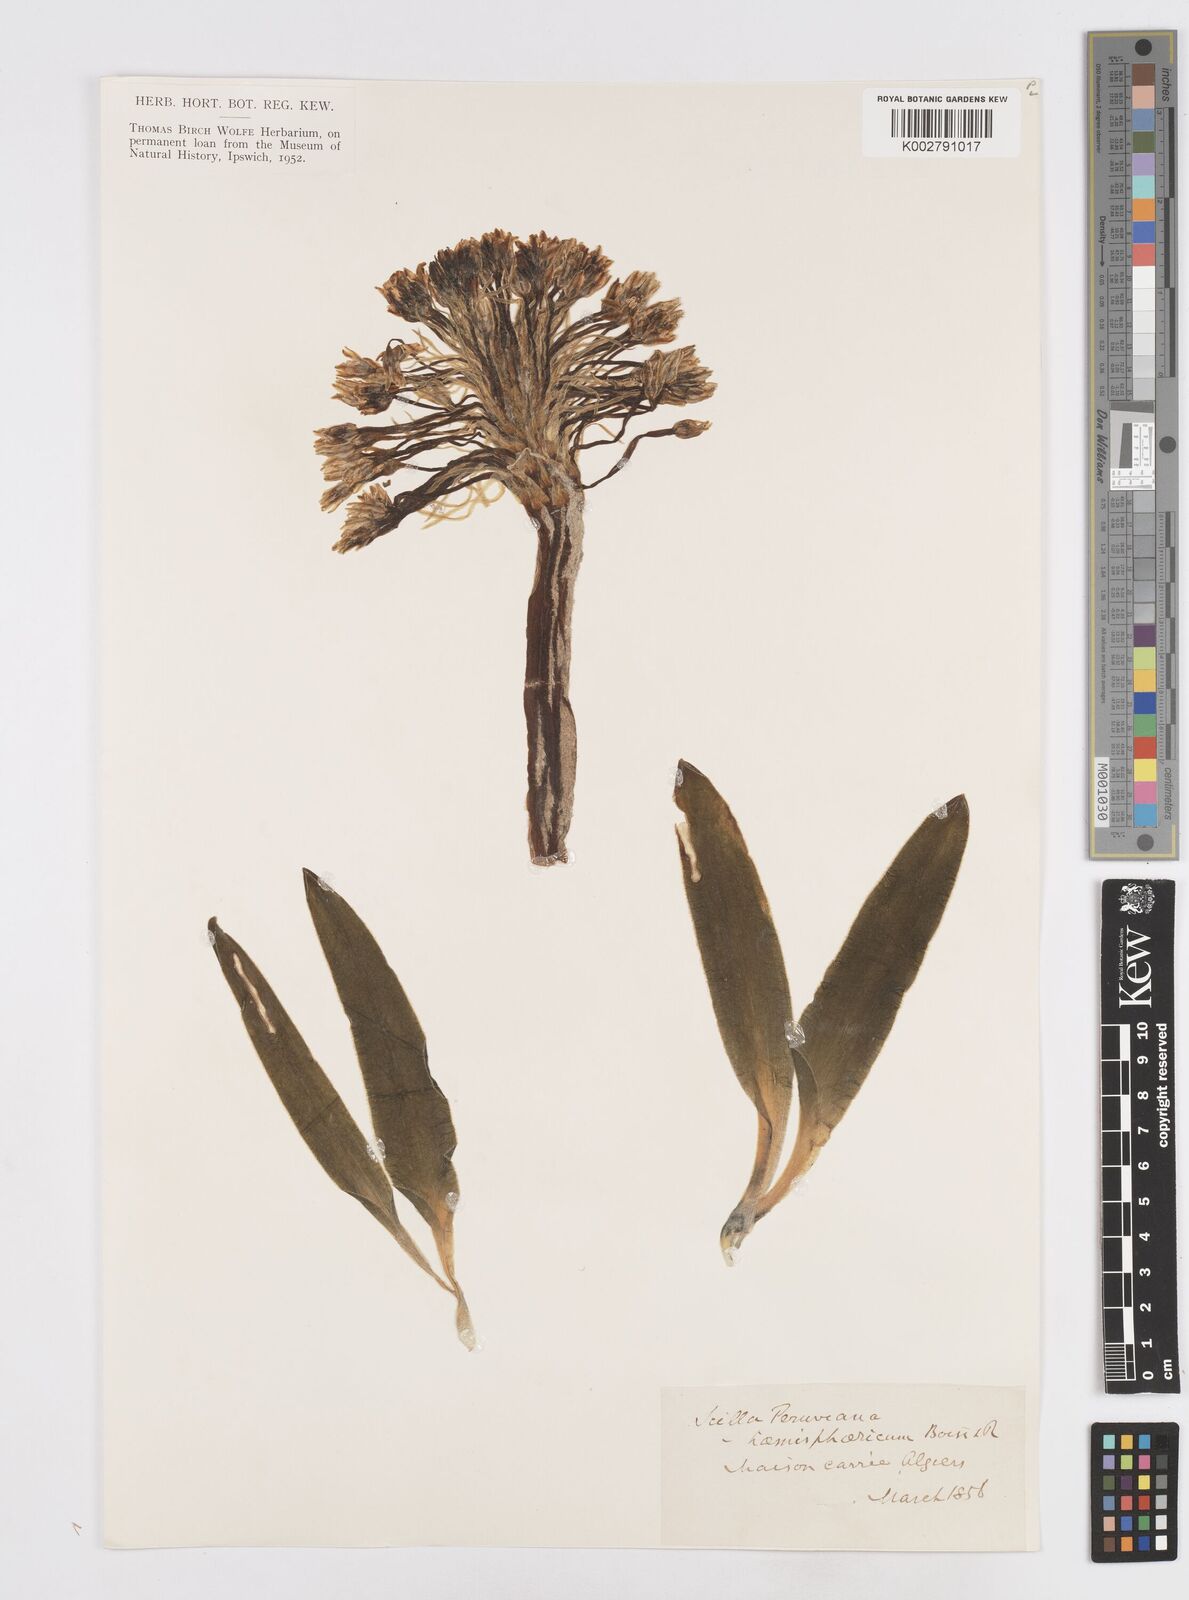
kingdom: Plantae
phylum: Tracheophyta
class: Liliopsida
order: Asparagales
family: Asparagaceae
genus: Scilla
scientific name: Scilla peruviana
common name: Portuguese squill
